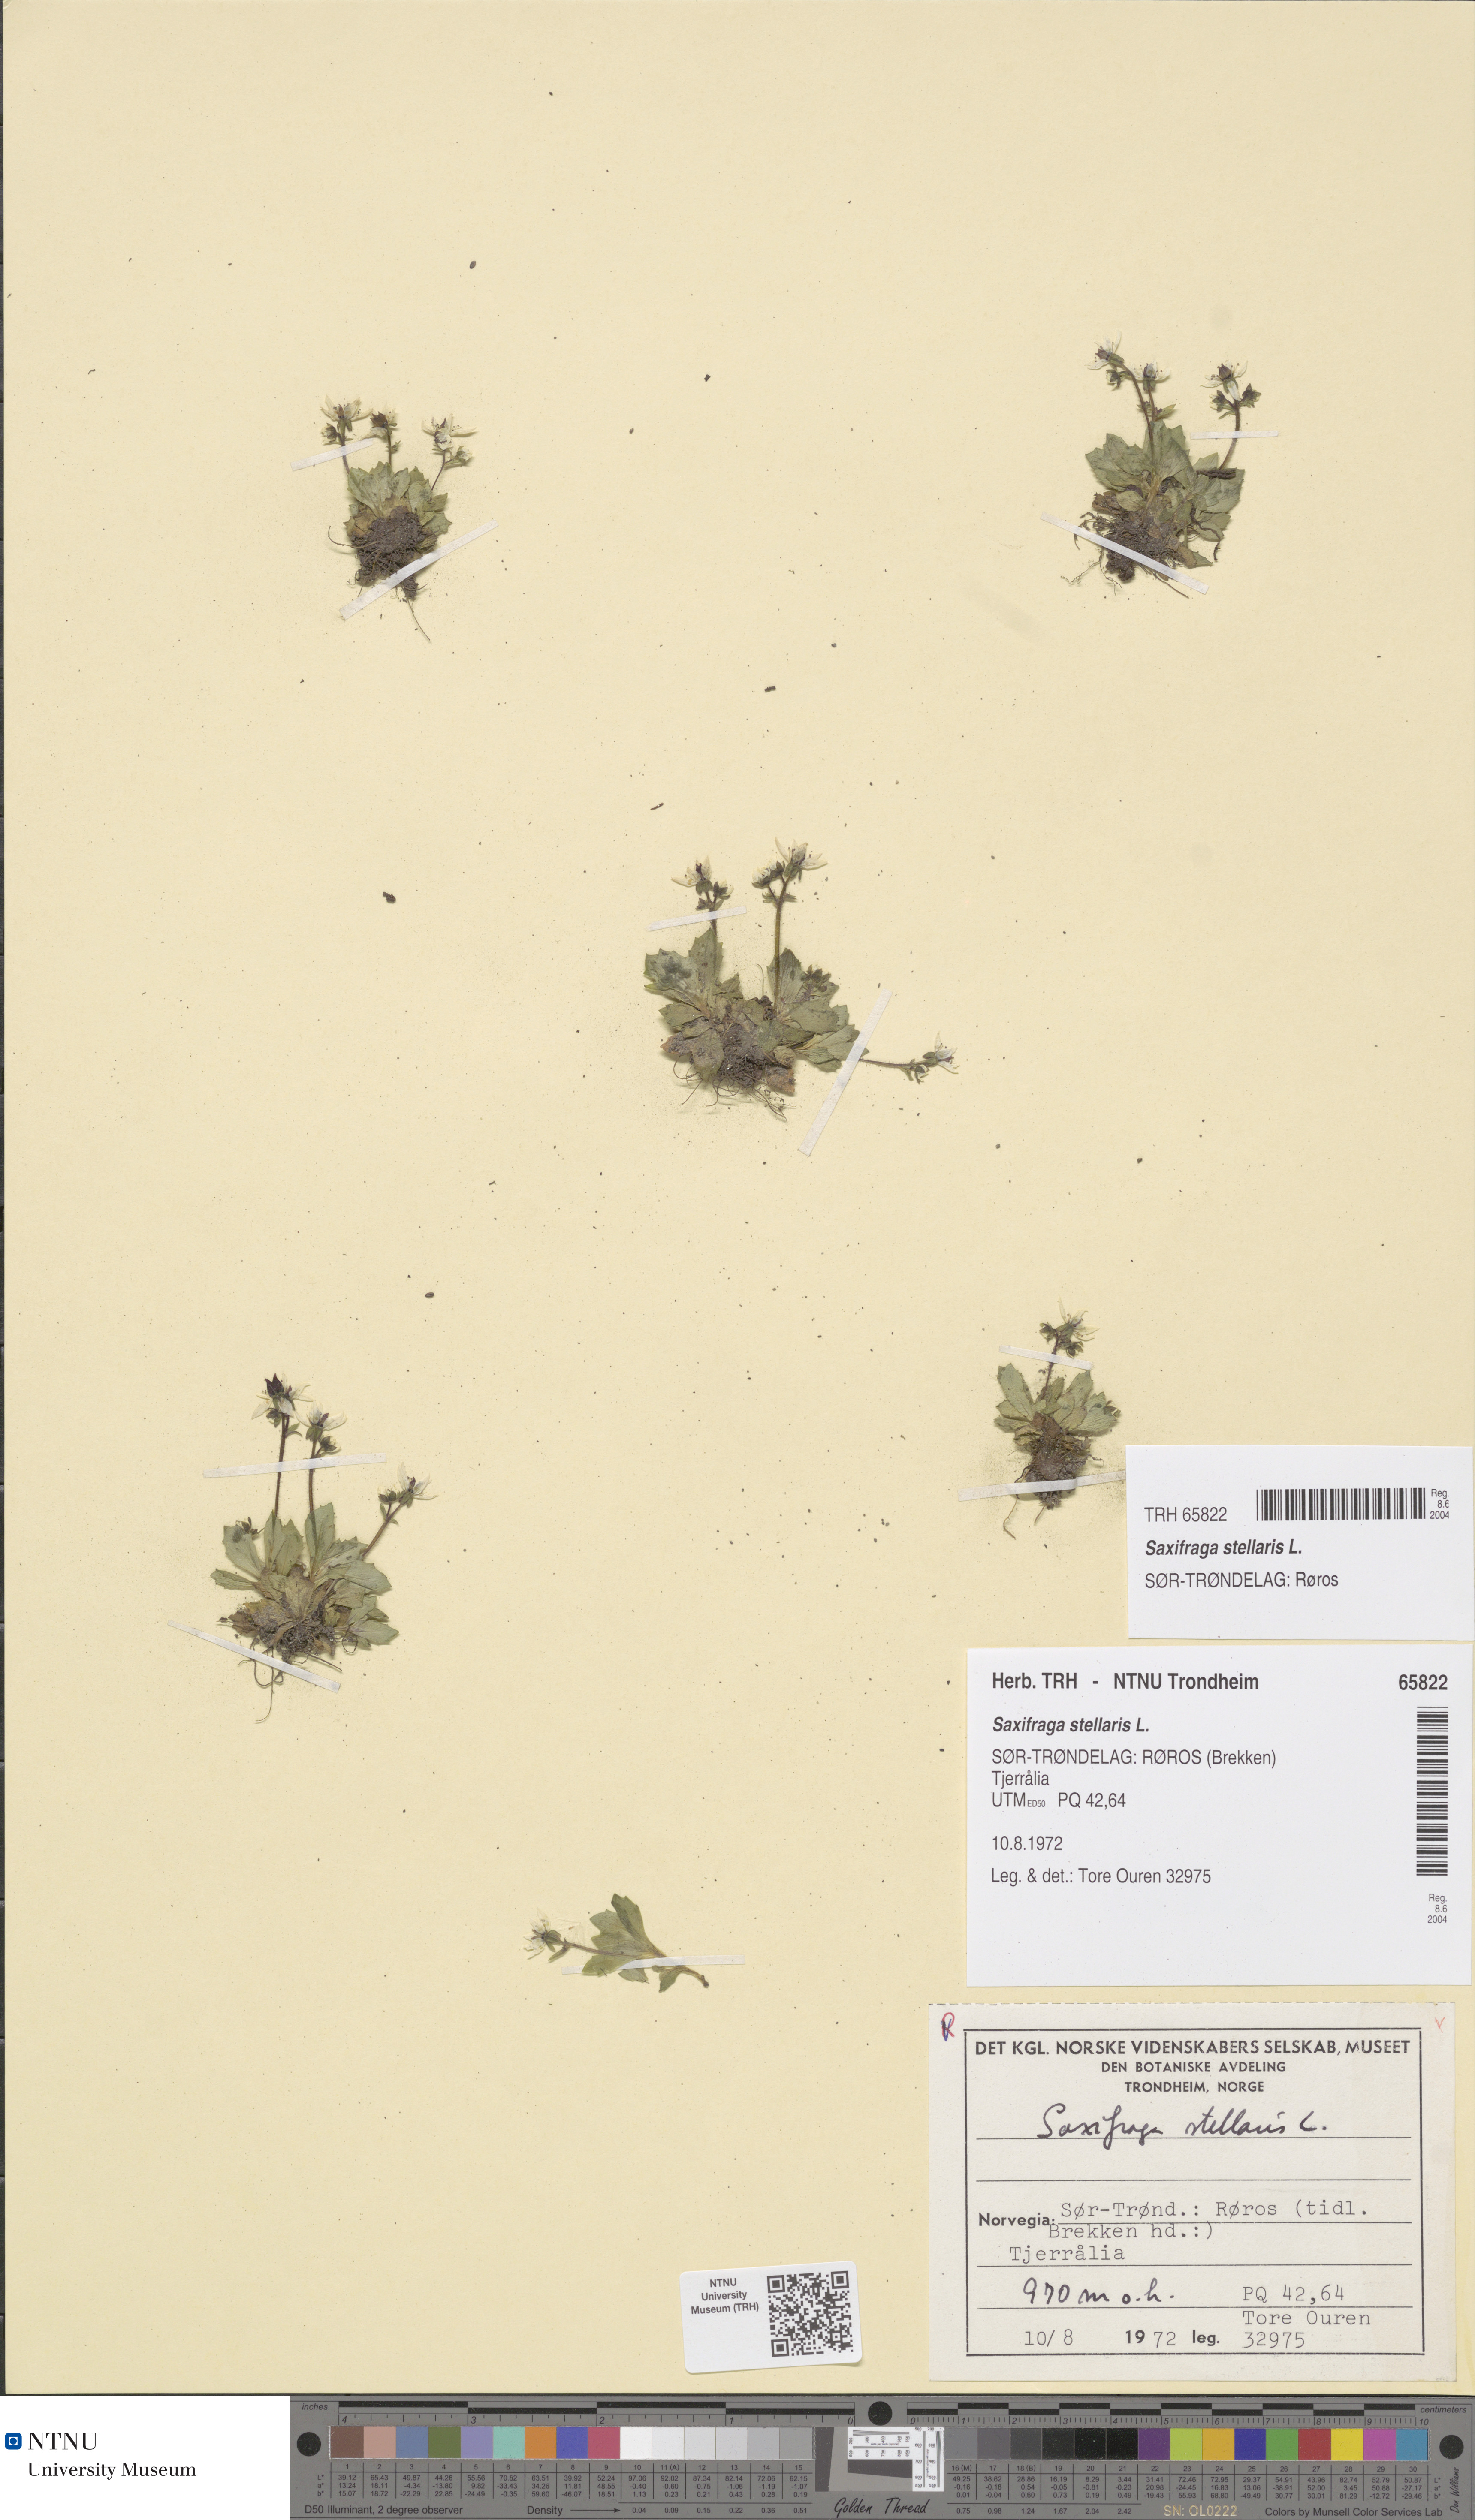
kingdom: Plantae
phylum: Tracheophyta
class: Magnoliopsida
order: Saxifragales
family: Saxifragaceae
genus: Micranthes
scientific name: Micranthes stellaris
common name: Starry saxifrage
